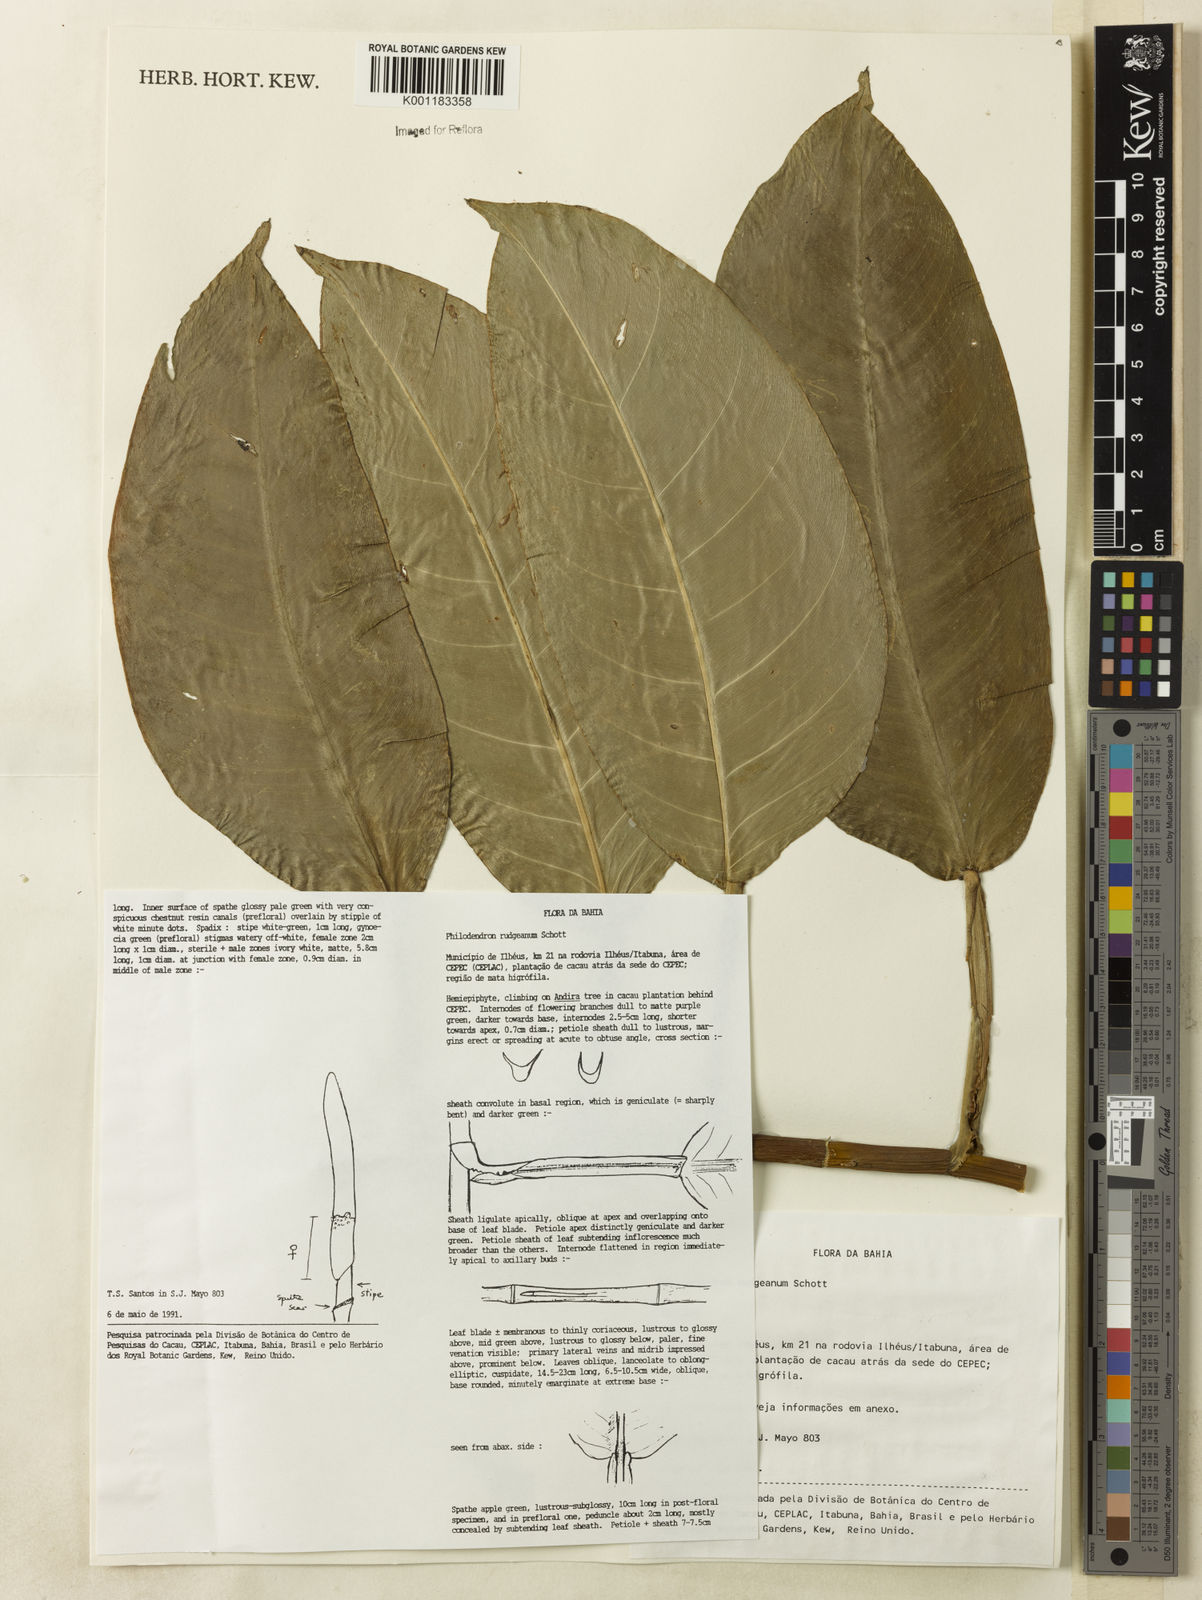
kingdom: Plantae
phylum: Tracheophyta
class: Liliopsida
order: Alismatales
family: Araceae
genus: Philodendron
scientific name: Philodendron rudgeanum
